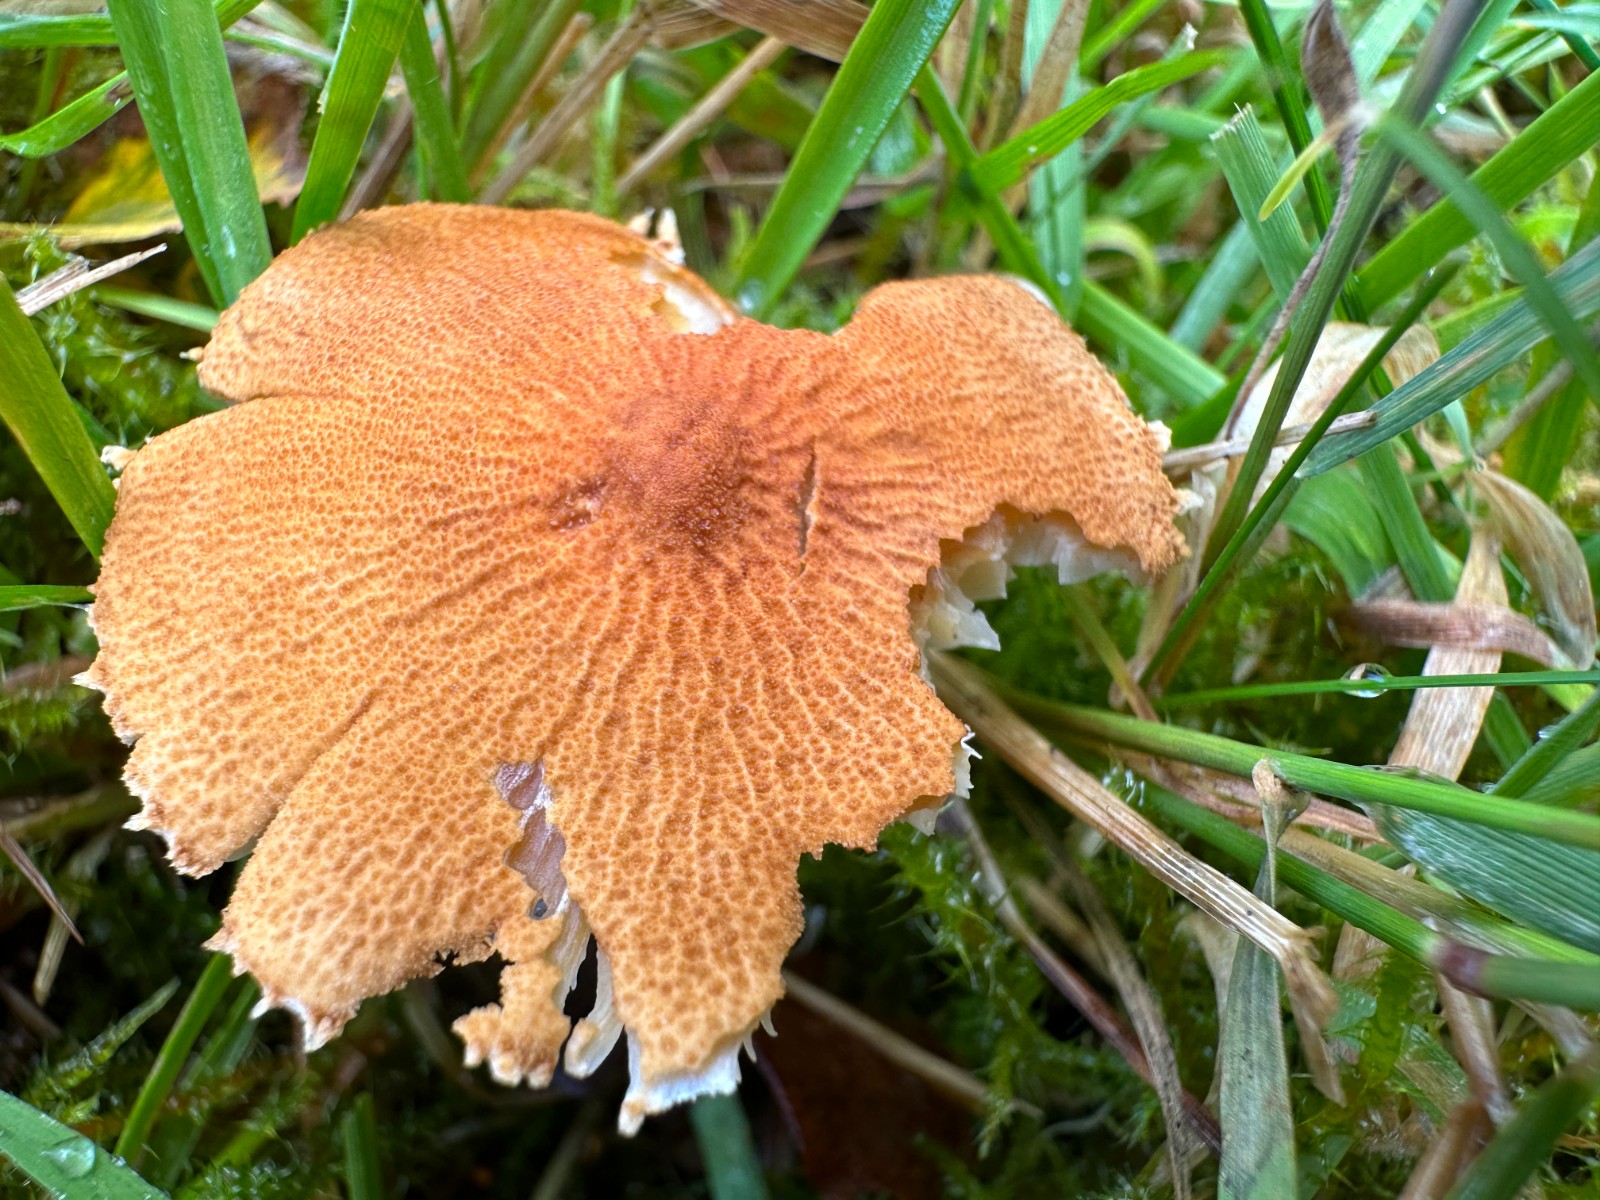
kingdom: Fungi
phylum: Basidiomycota
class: Agaricomycetes
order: Agaricales
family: Tricholomataceae
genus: Cystoderma
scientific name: Cystoderma amianthinum
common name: okkergul grynhat
